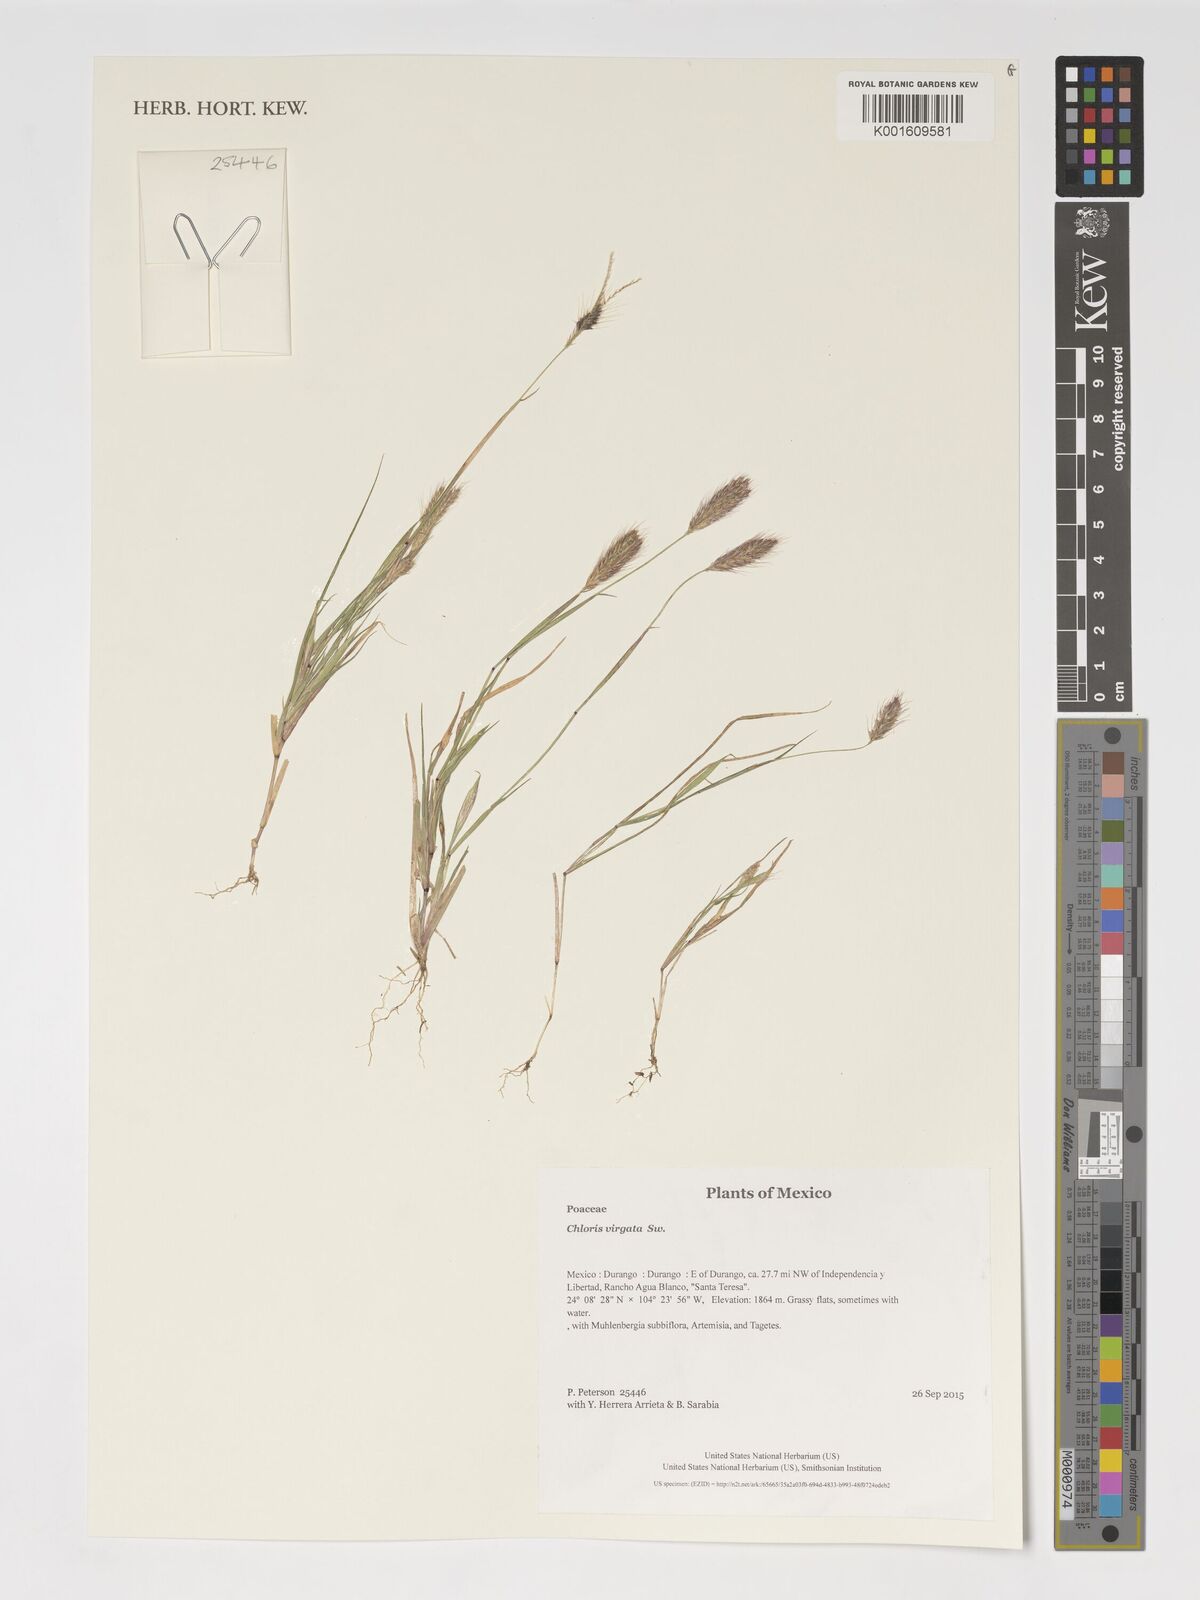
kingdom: Plantae
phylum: Tracheophyta
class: Liliopsida
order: Poales
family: Poaceae
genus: Chloris
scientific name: Chloris virgata
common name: Feathery rhodes-grass
